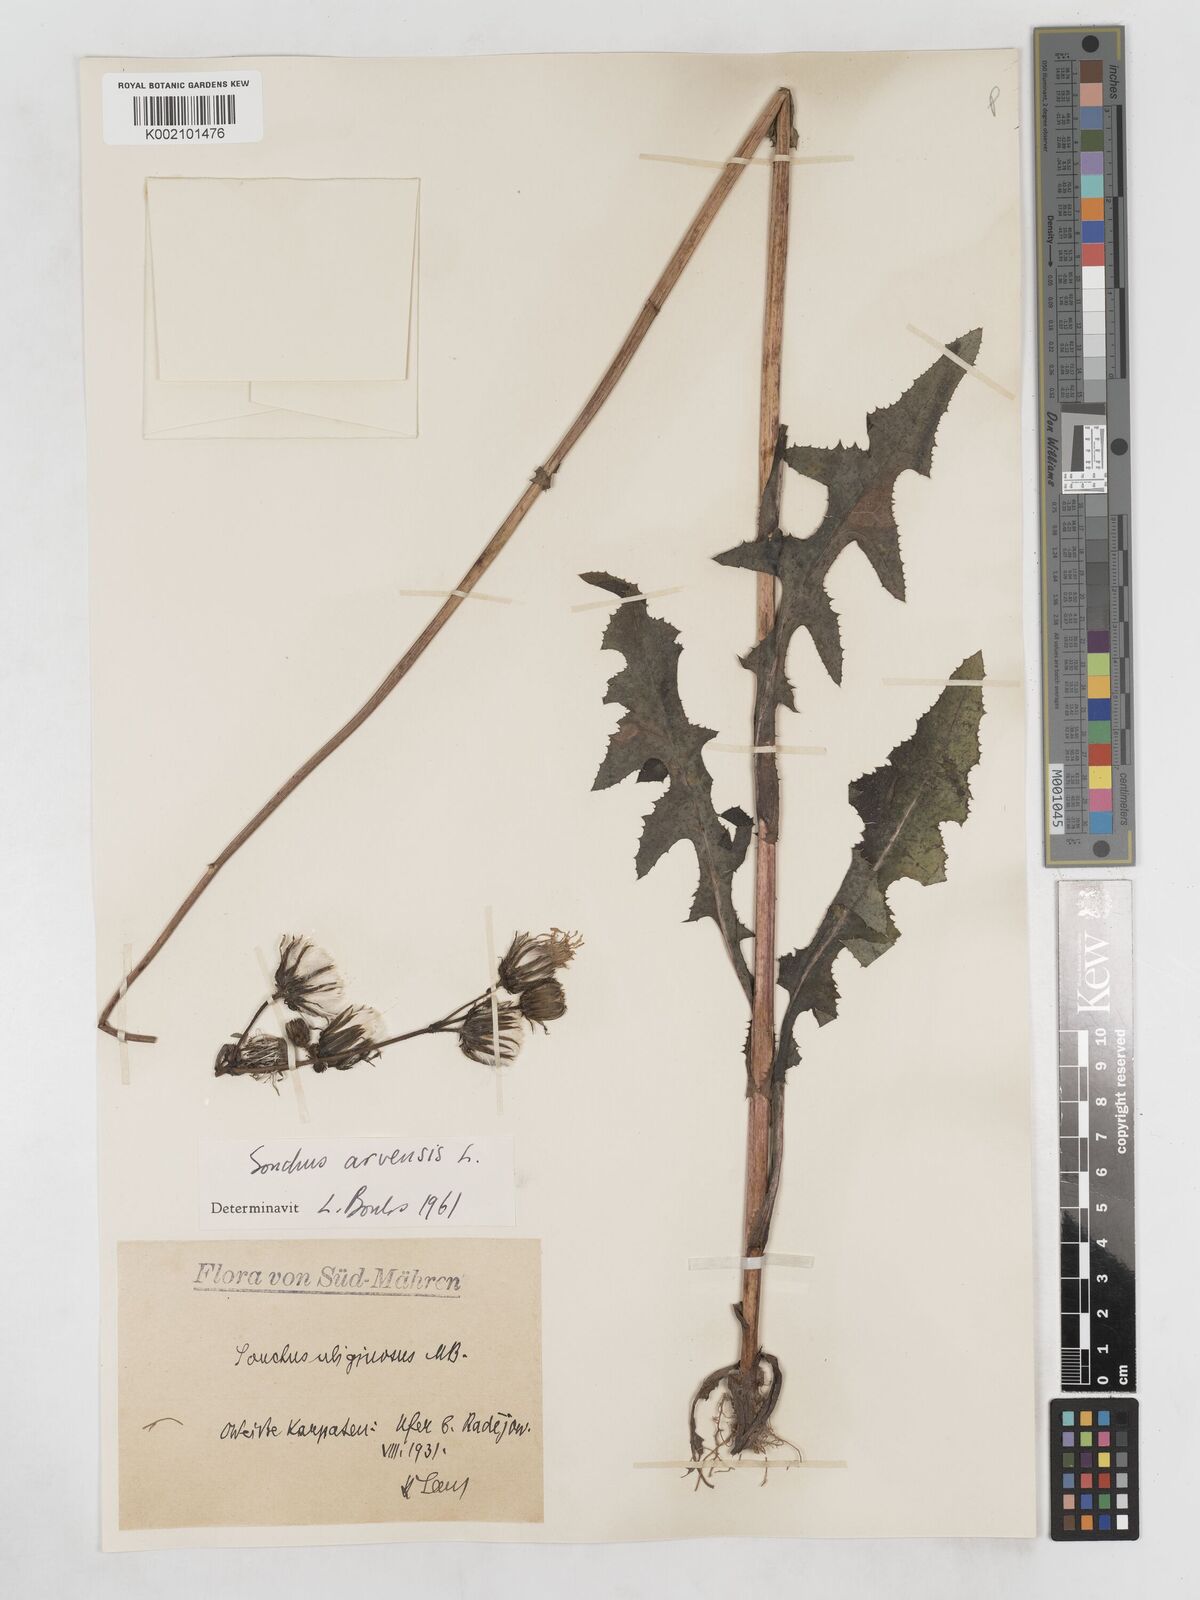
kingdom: Plantae
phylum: Tracheophyta
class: Magnoliopsida
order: Asterales
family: Asteraceae
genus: Sonchus
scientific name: Sonchus arvensis
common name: Perennial sow-thistle
